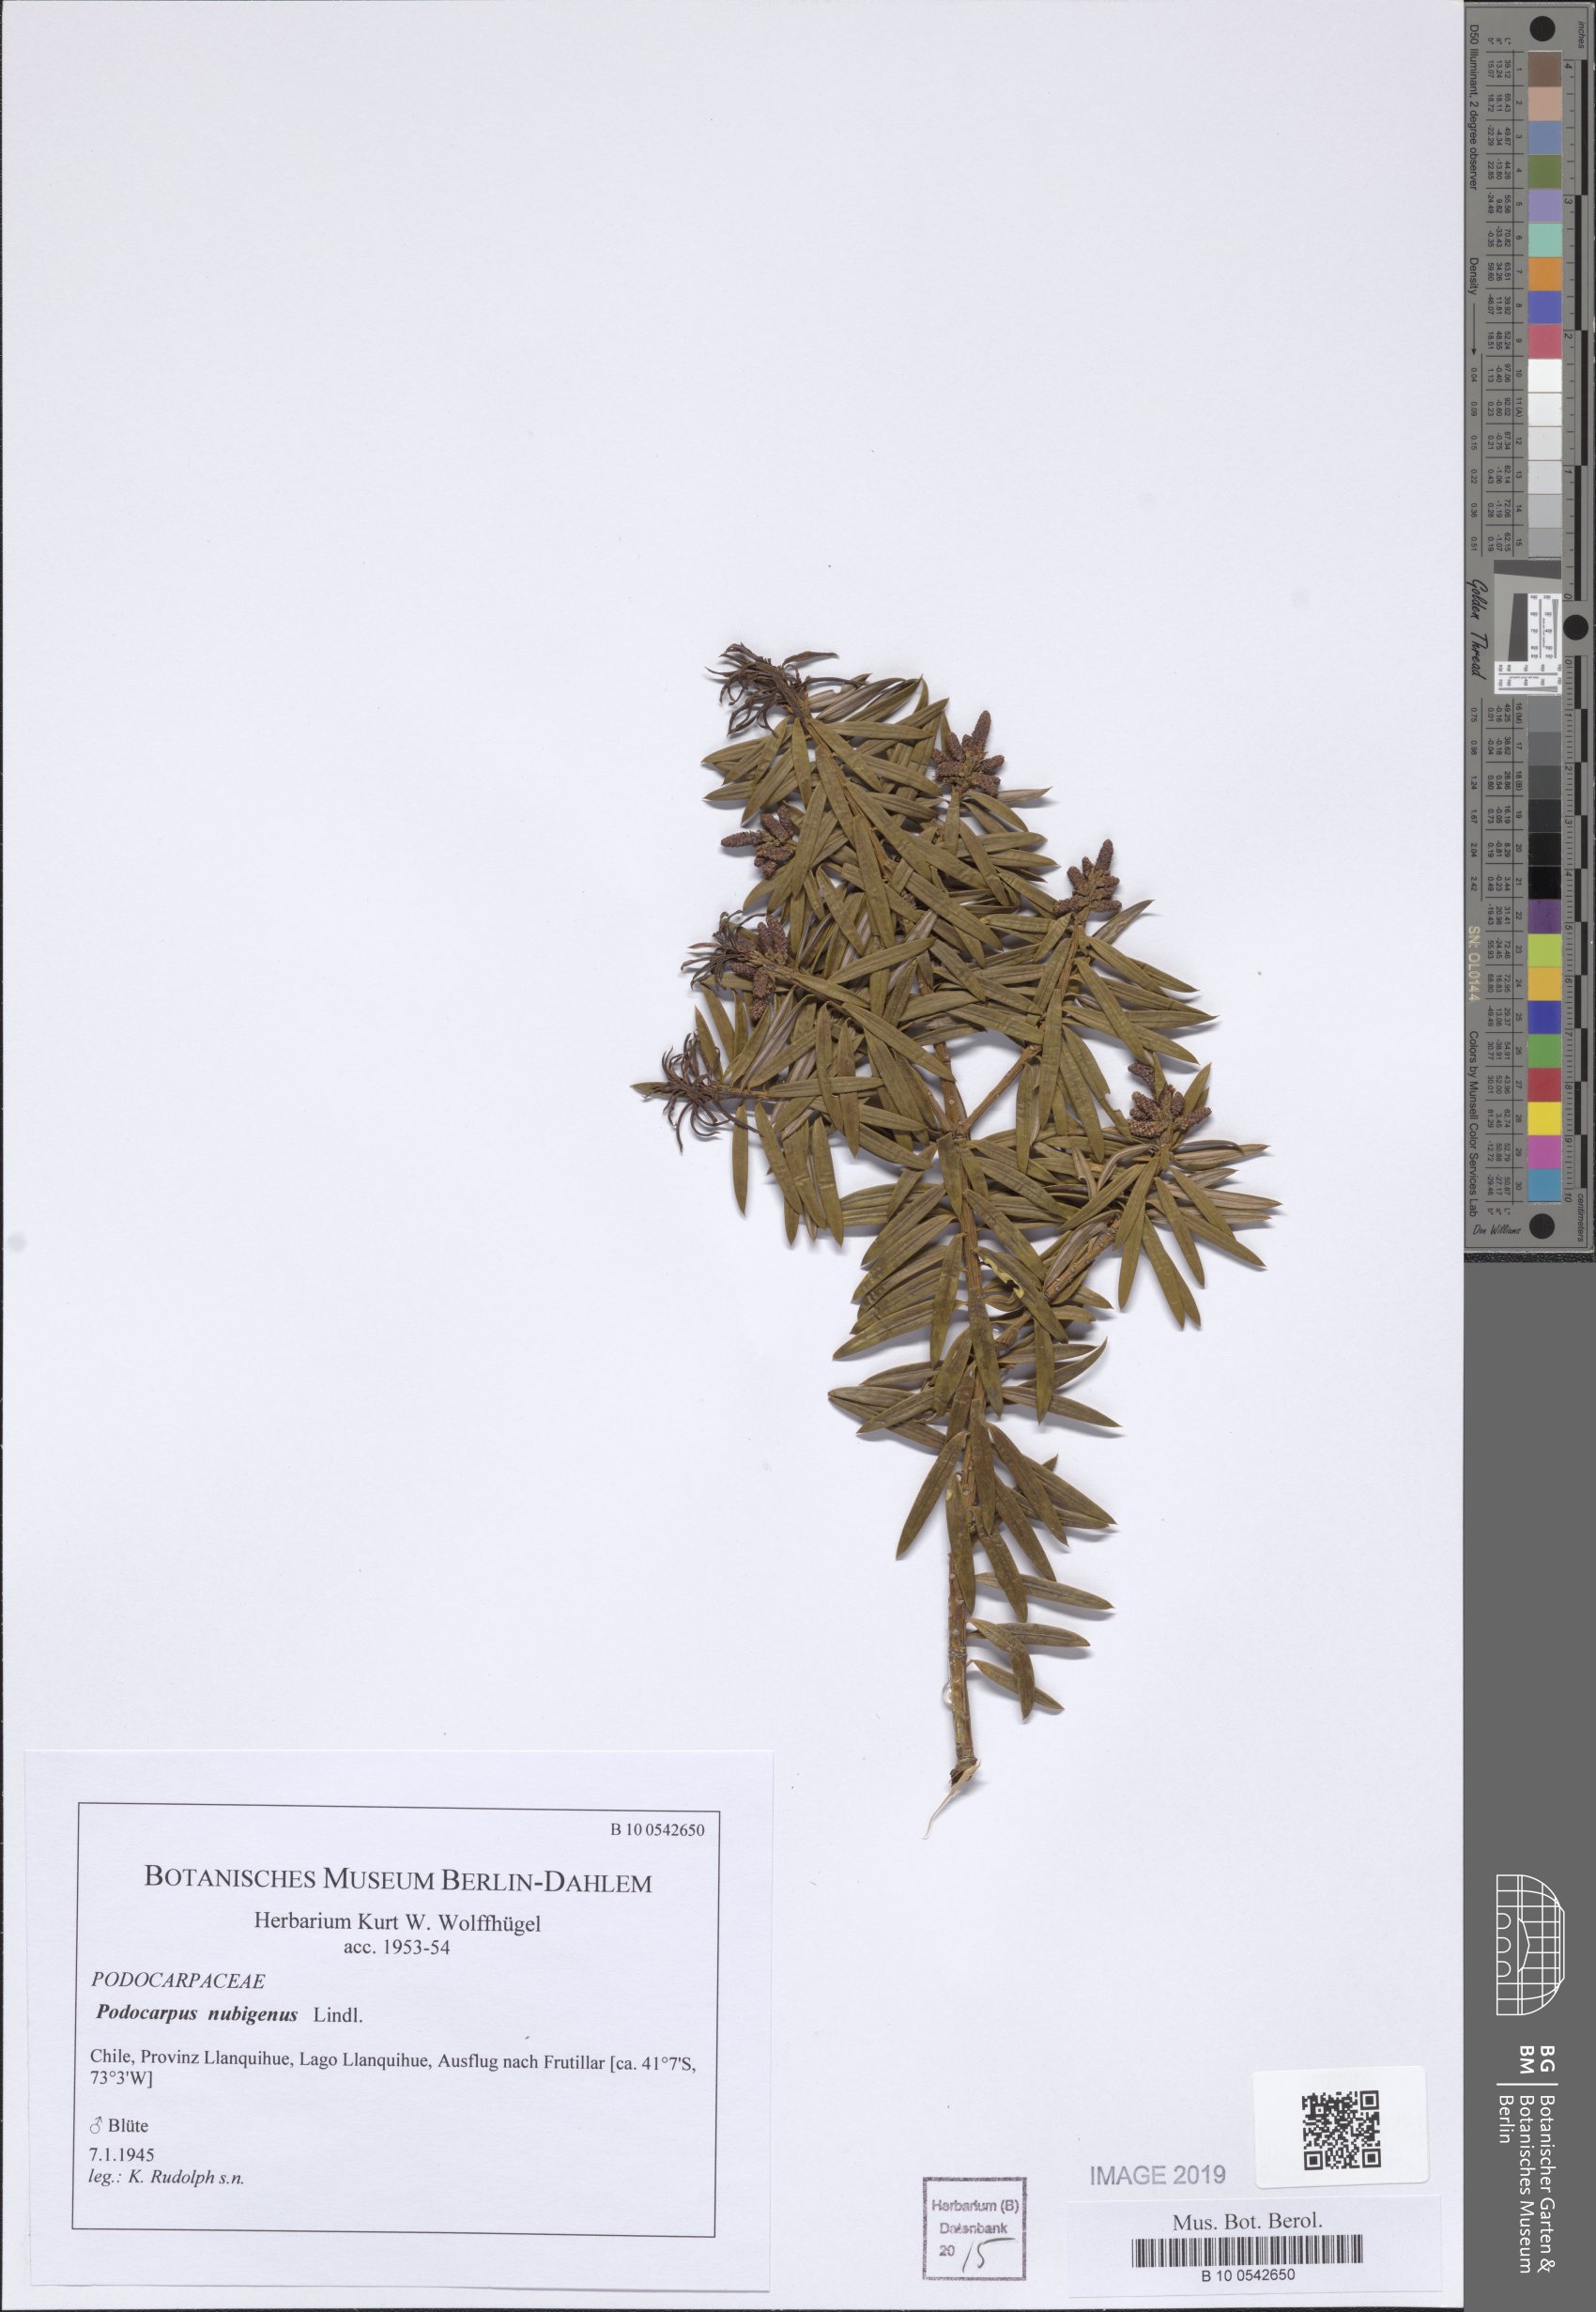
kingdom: Plantae
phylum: Tracheophyta
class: Pinopsida
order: Pinales
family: Podocarpaceae
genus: Podocarpus
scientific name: Podocarpus nubigenus
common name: Cloud podocarp
